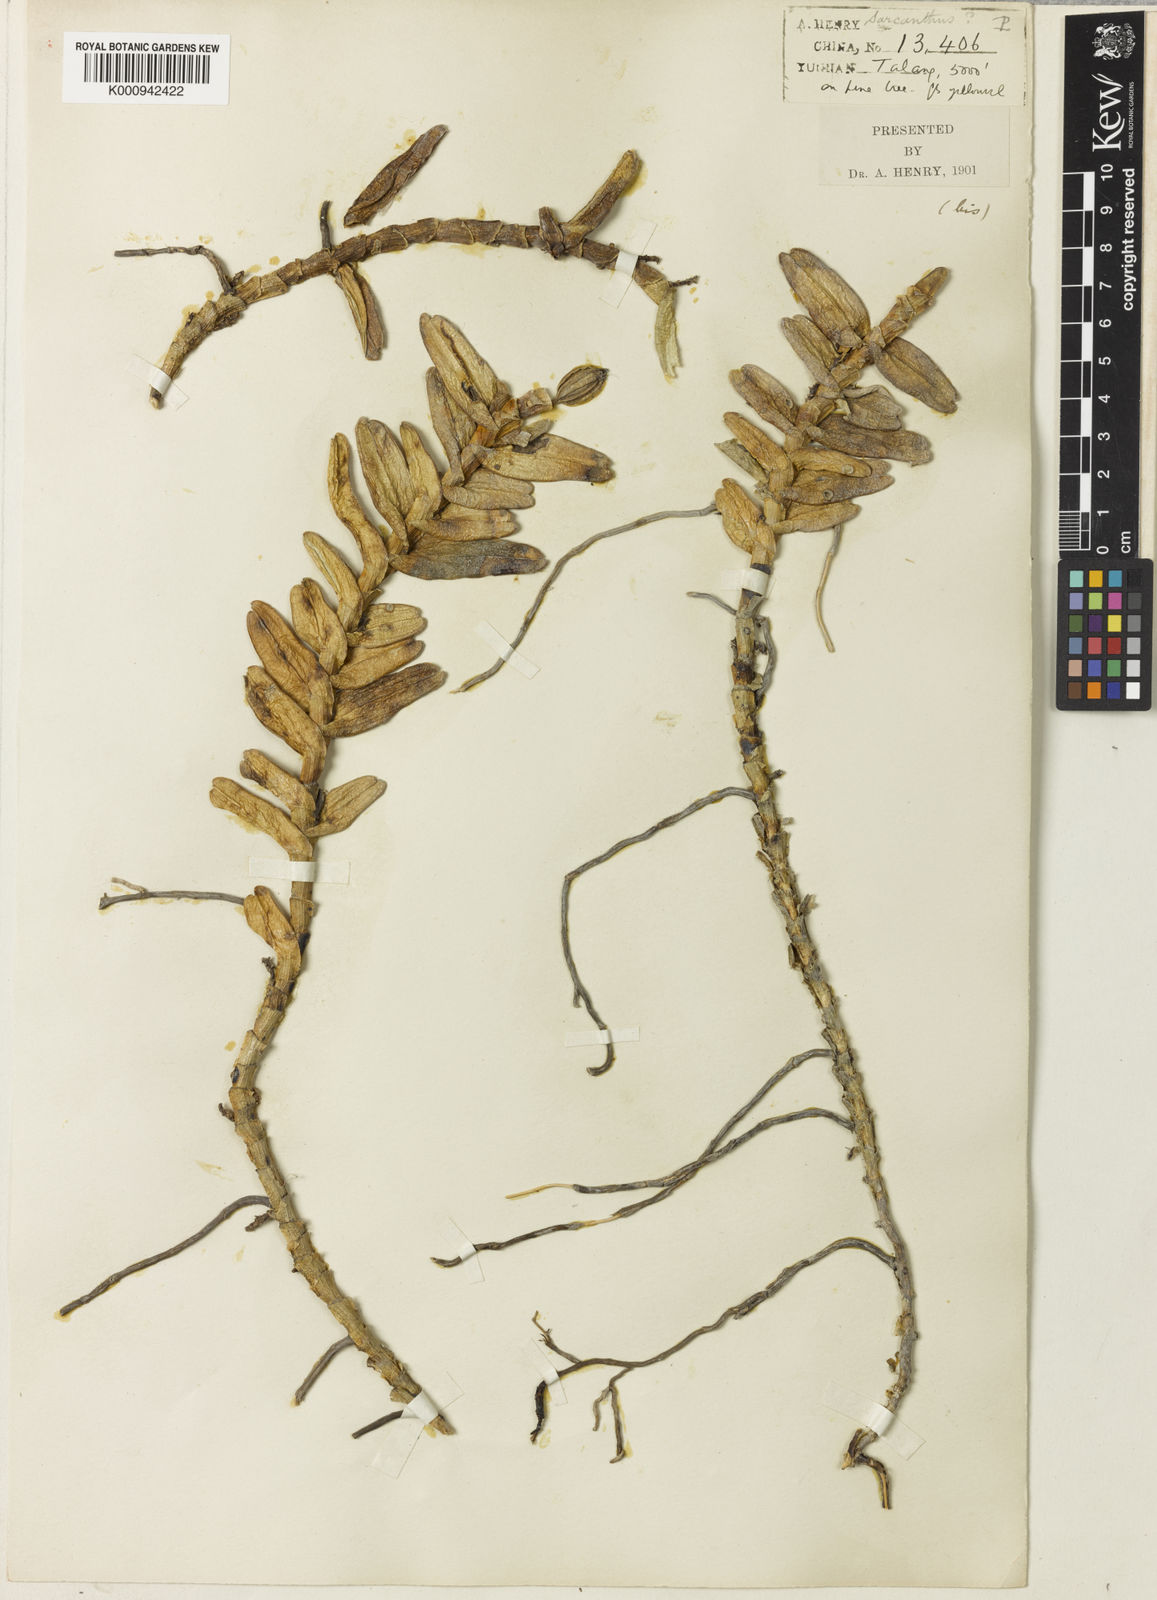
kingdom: Plantae
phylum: Tracheophyta
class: Liliopsida
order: Asparagales
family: Orchidaceae
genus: Pelatantheria
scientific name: Pelatantheria rivesii
